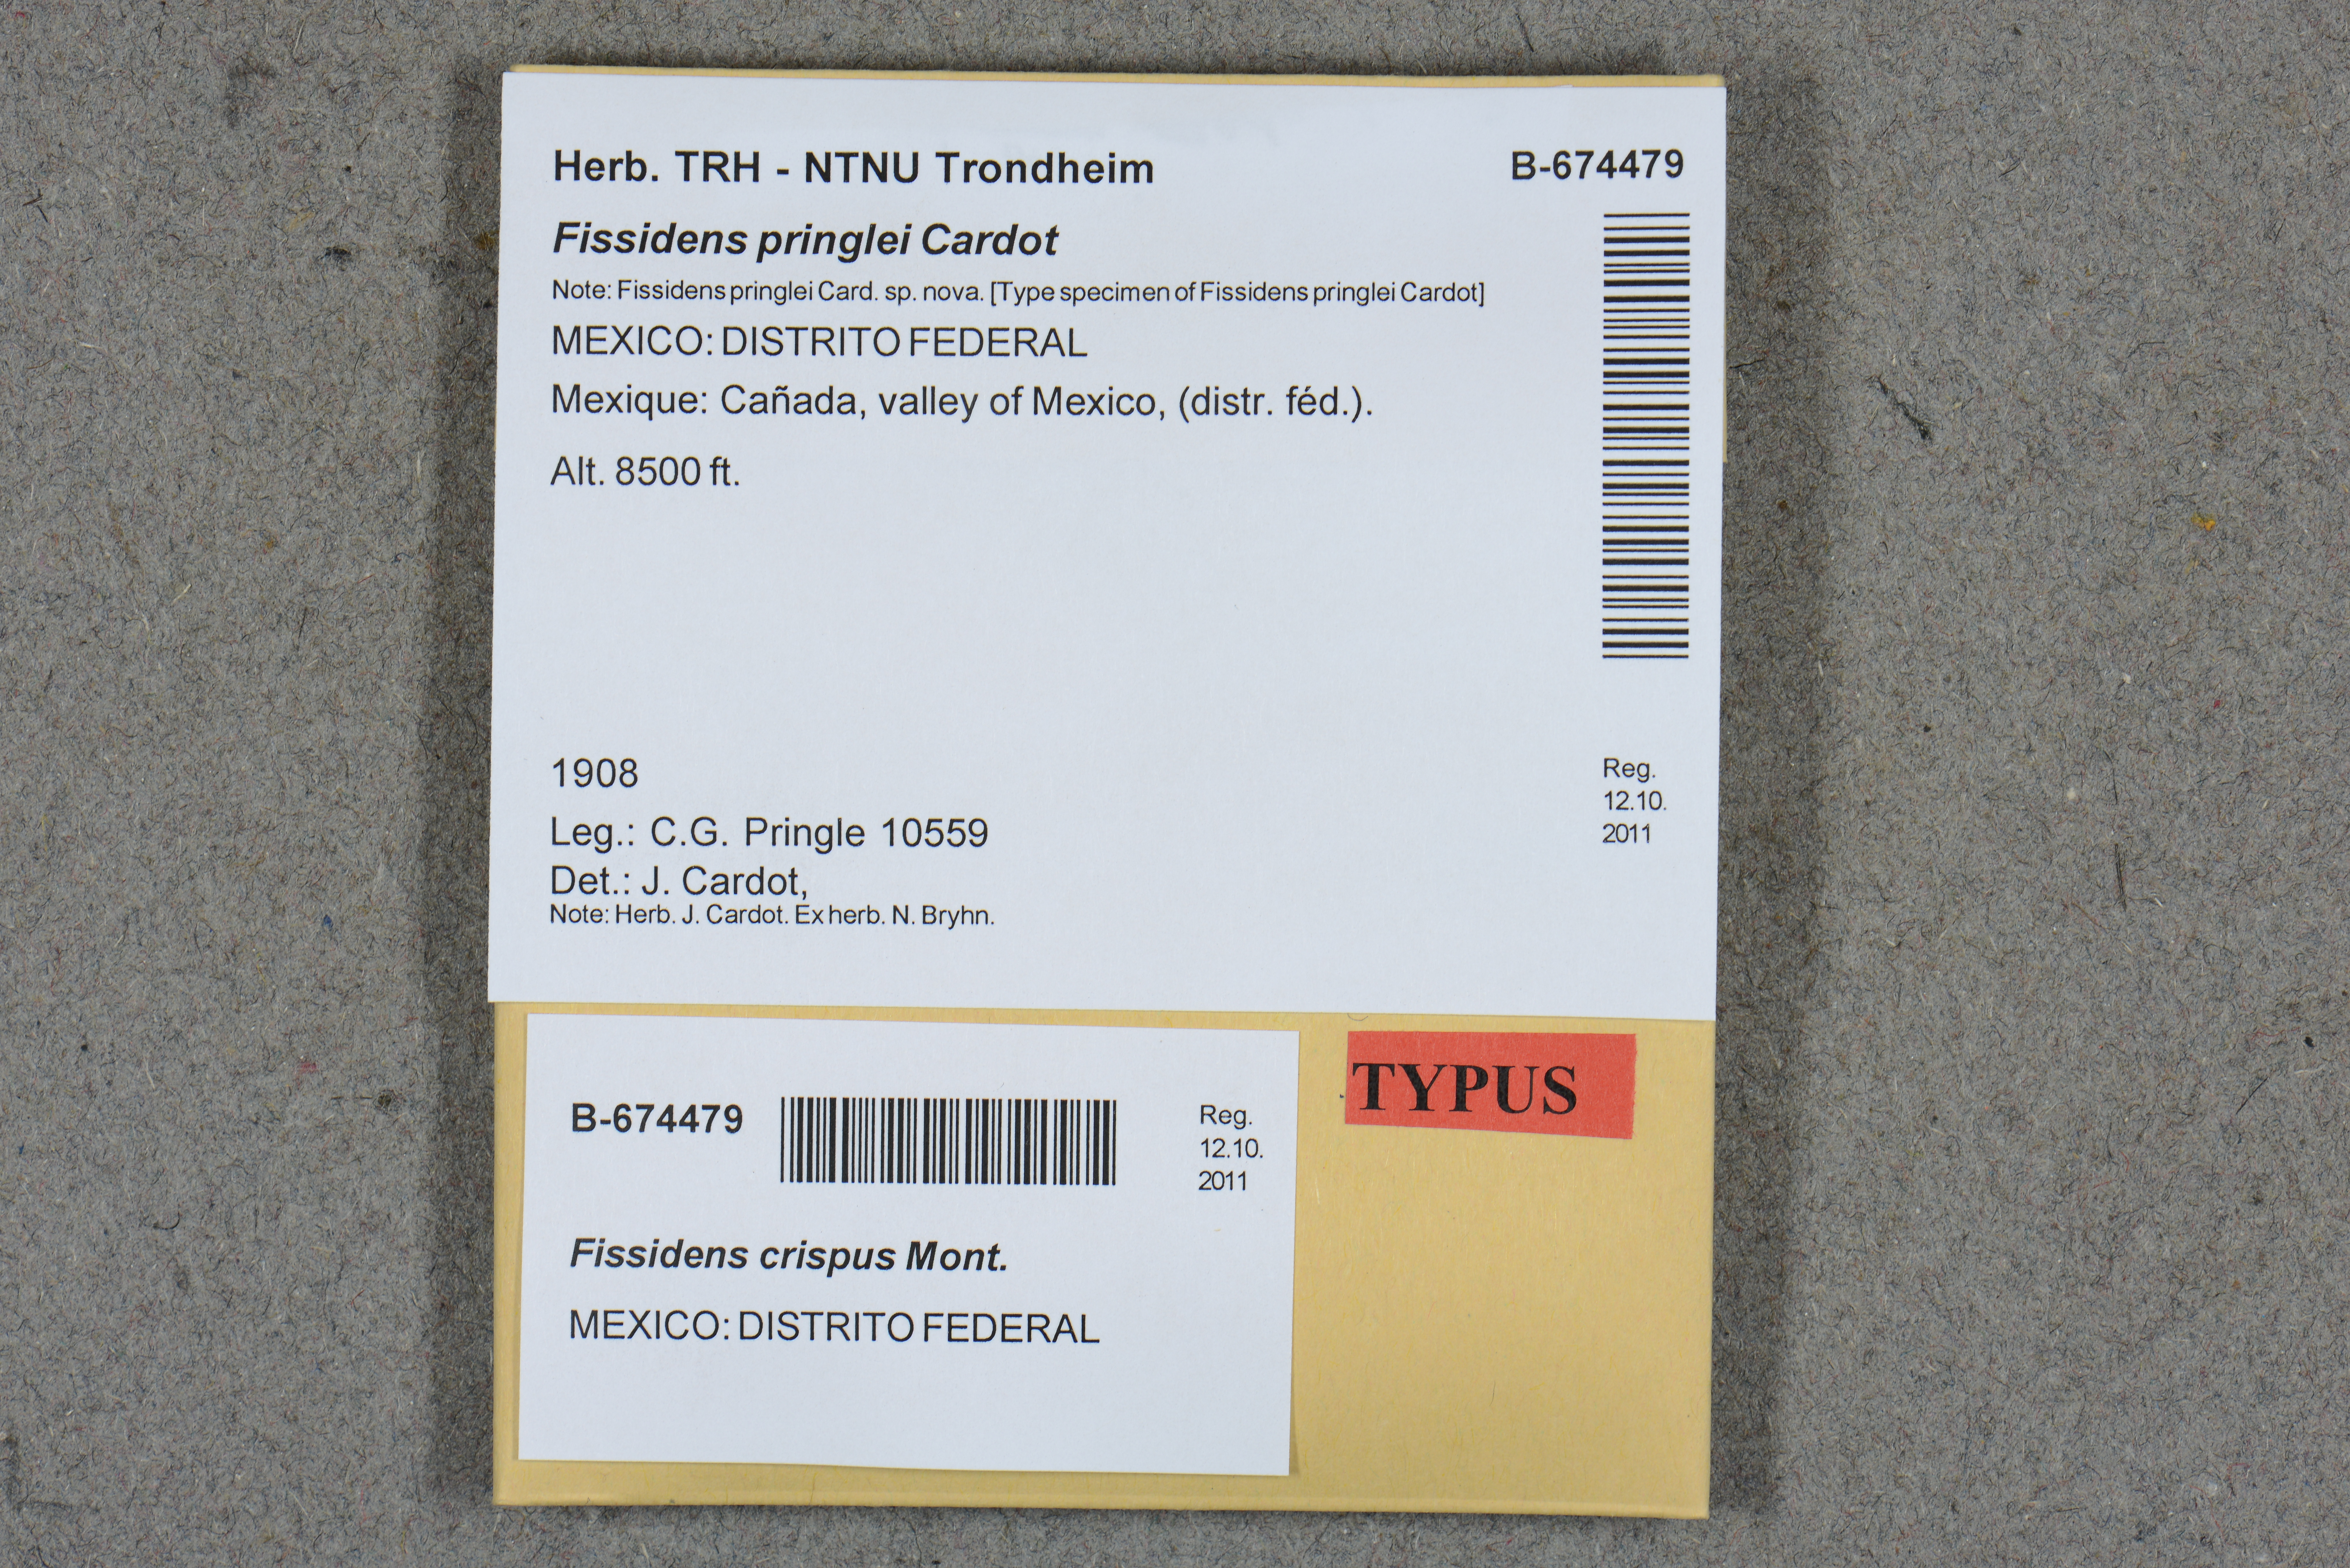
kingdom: Plantae
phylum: Bryophyta
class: Bryopsida
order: Dicranales
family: Fissidentaceae
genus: Fissidens
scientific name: Fissidens crispus
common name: Herzog's pocket-moss
